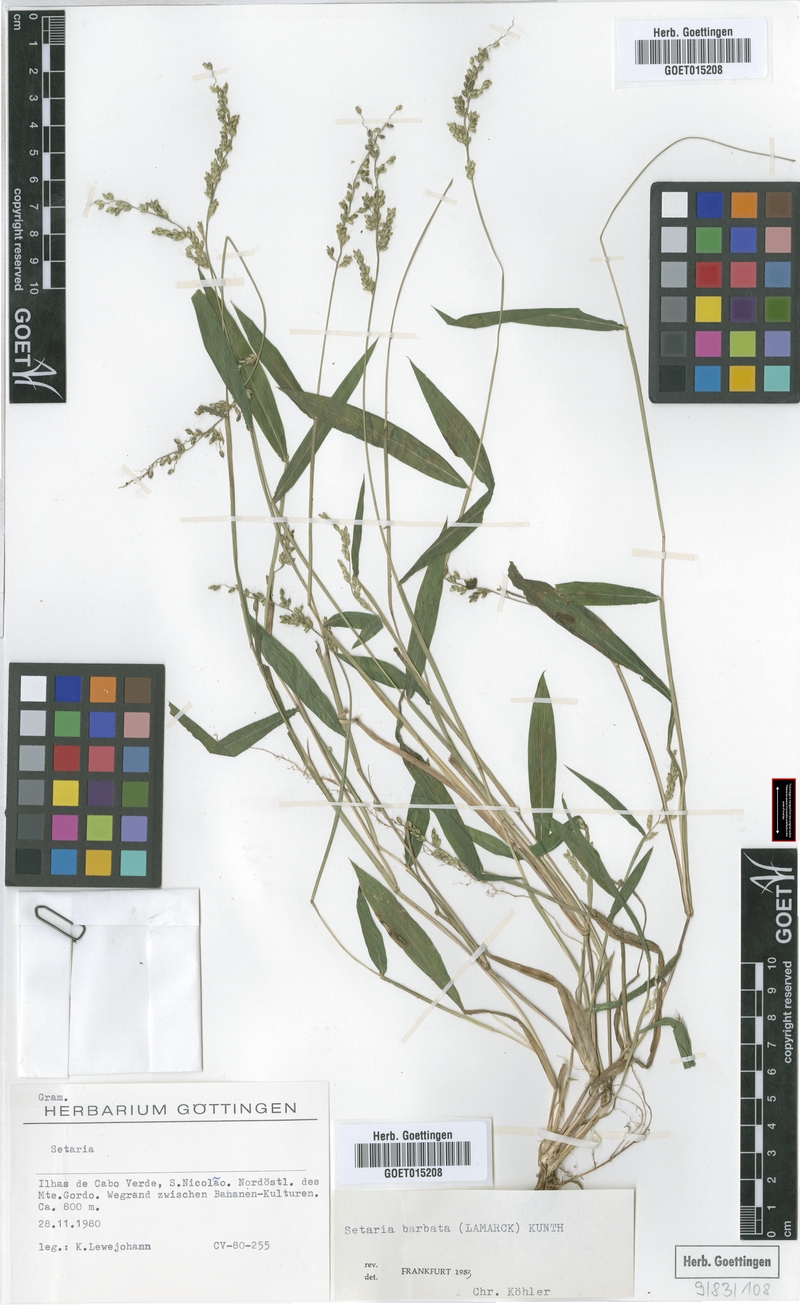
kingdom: Plantae
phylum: Tracheophyta
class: Liliopsida
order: Poales
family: Poaceae
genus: Setaria
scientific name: Setaria barbata
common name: East indian bristlegrass
